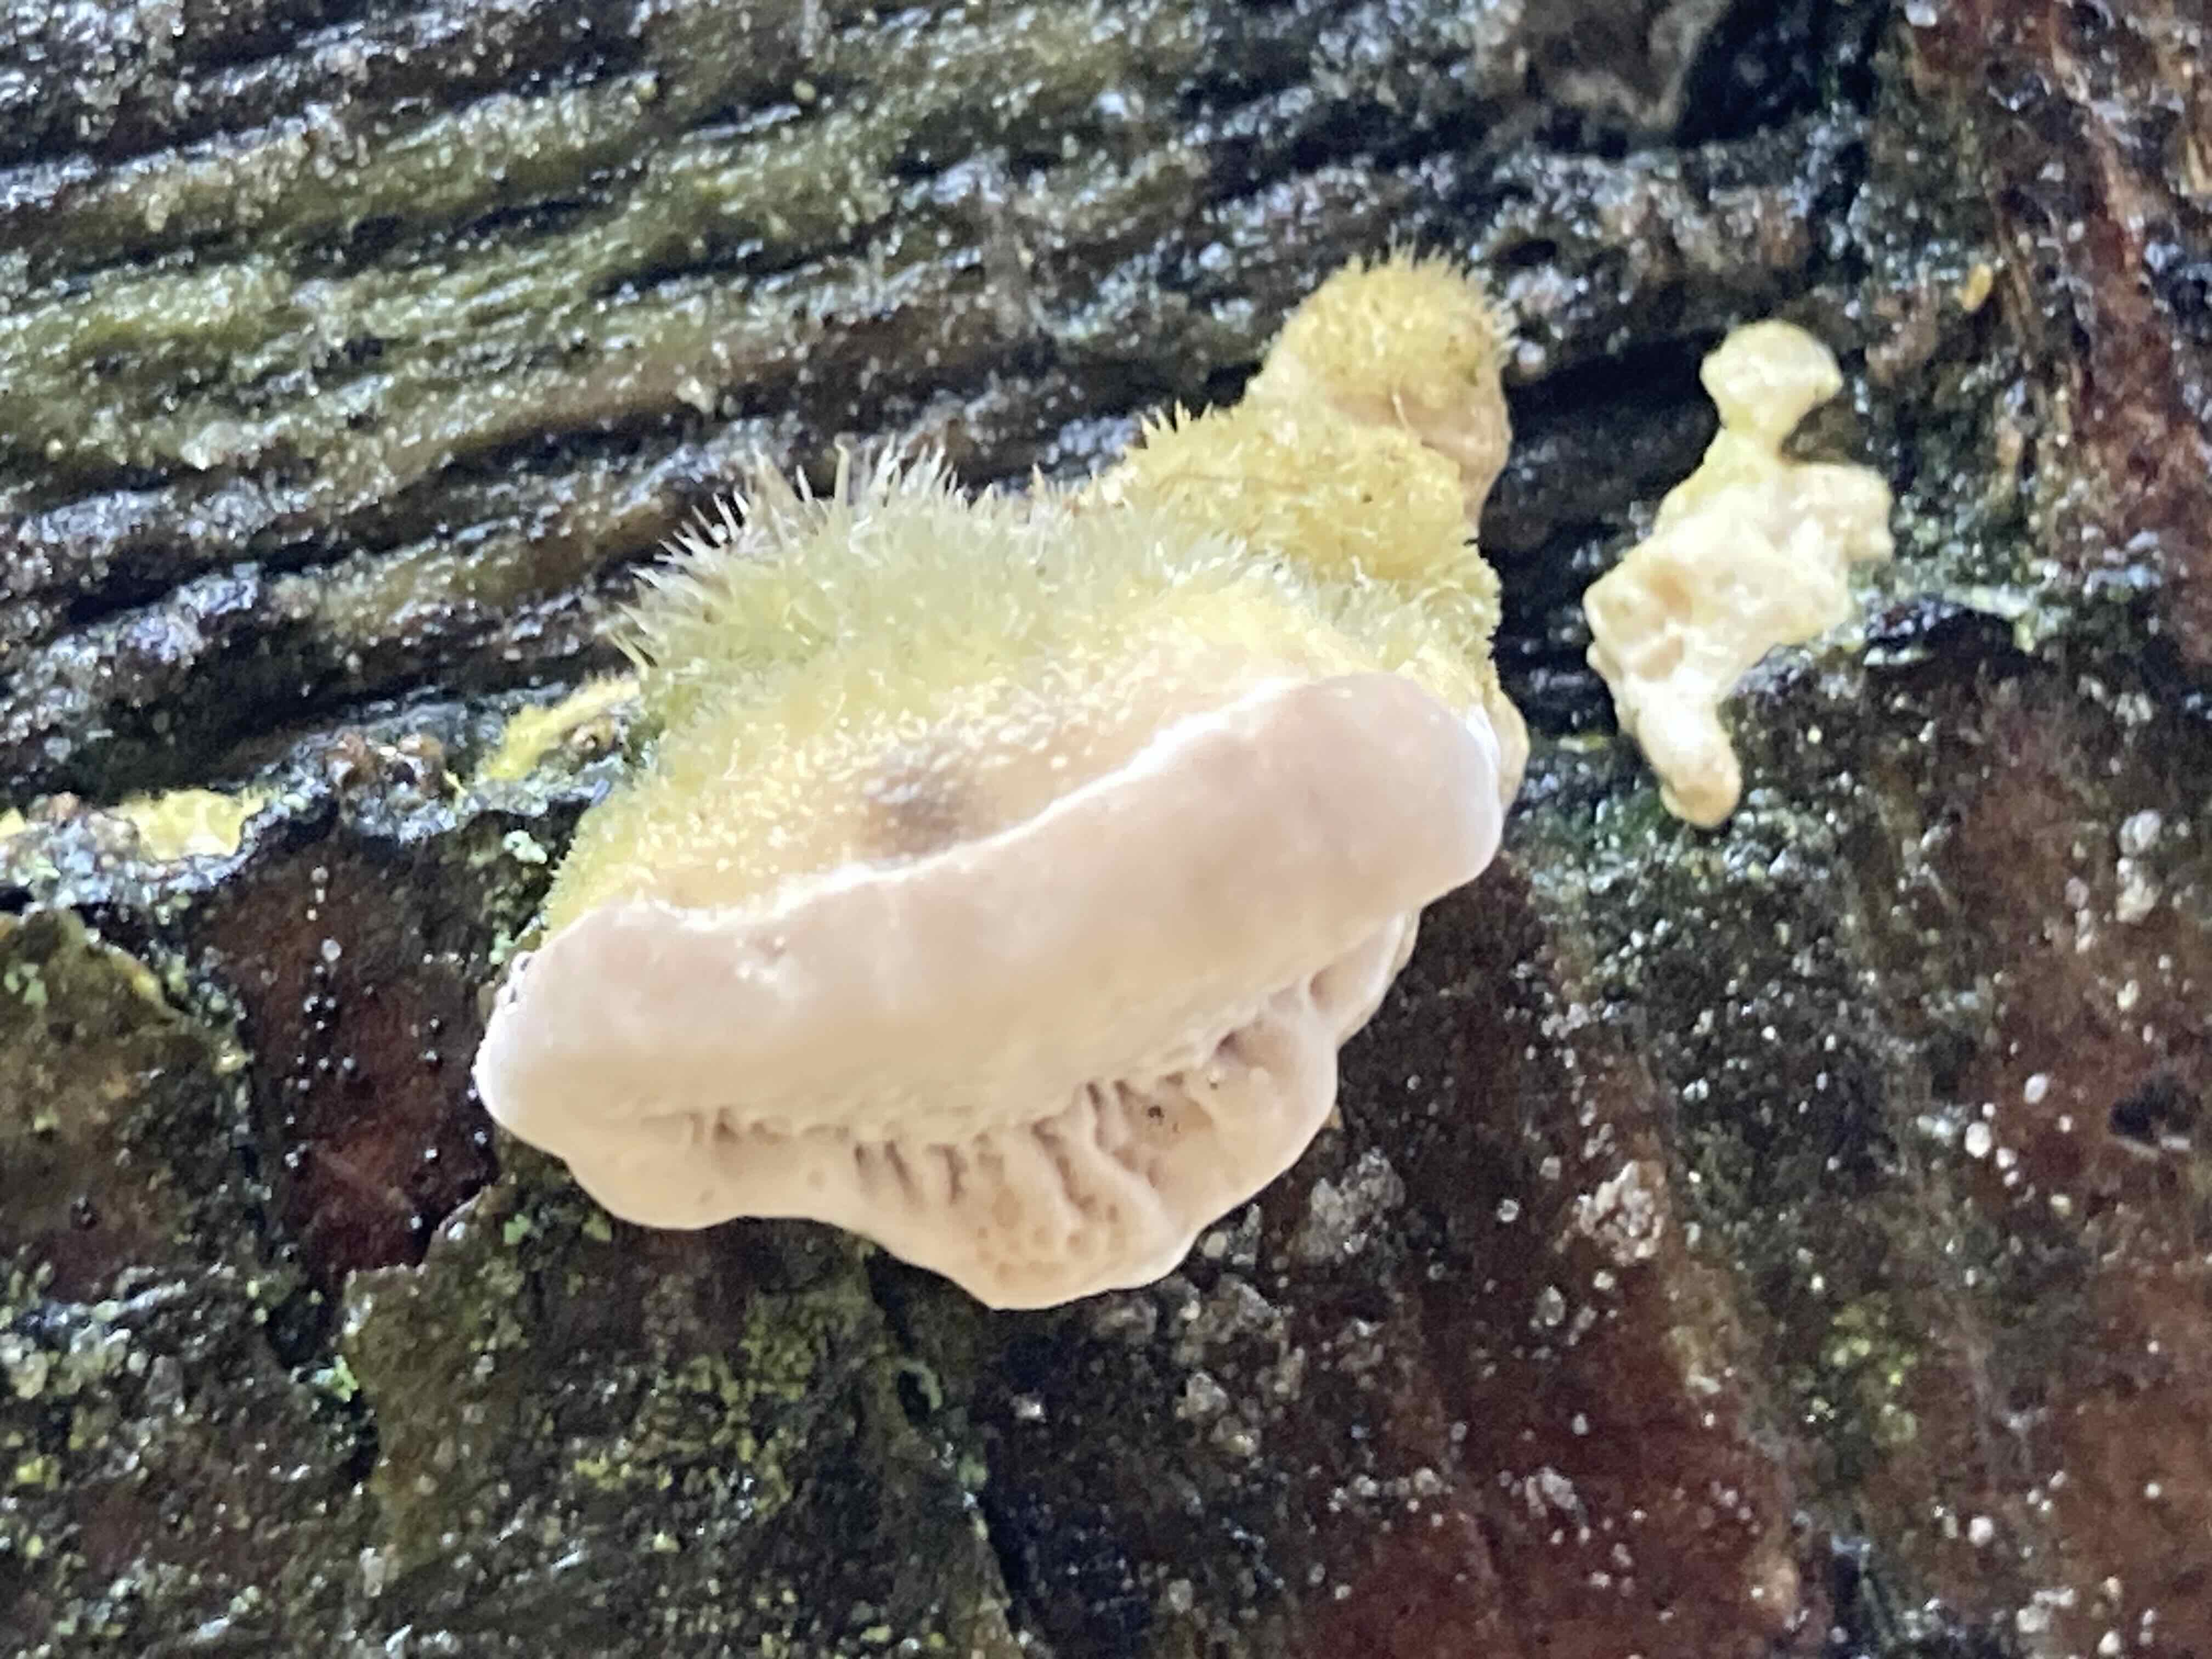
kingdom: Fungi
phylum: Basidiomycota
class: Agaricomycetes
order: Polyporales
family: Polyporaceae
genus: Trametes
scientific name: Trametes
